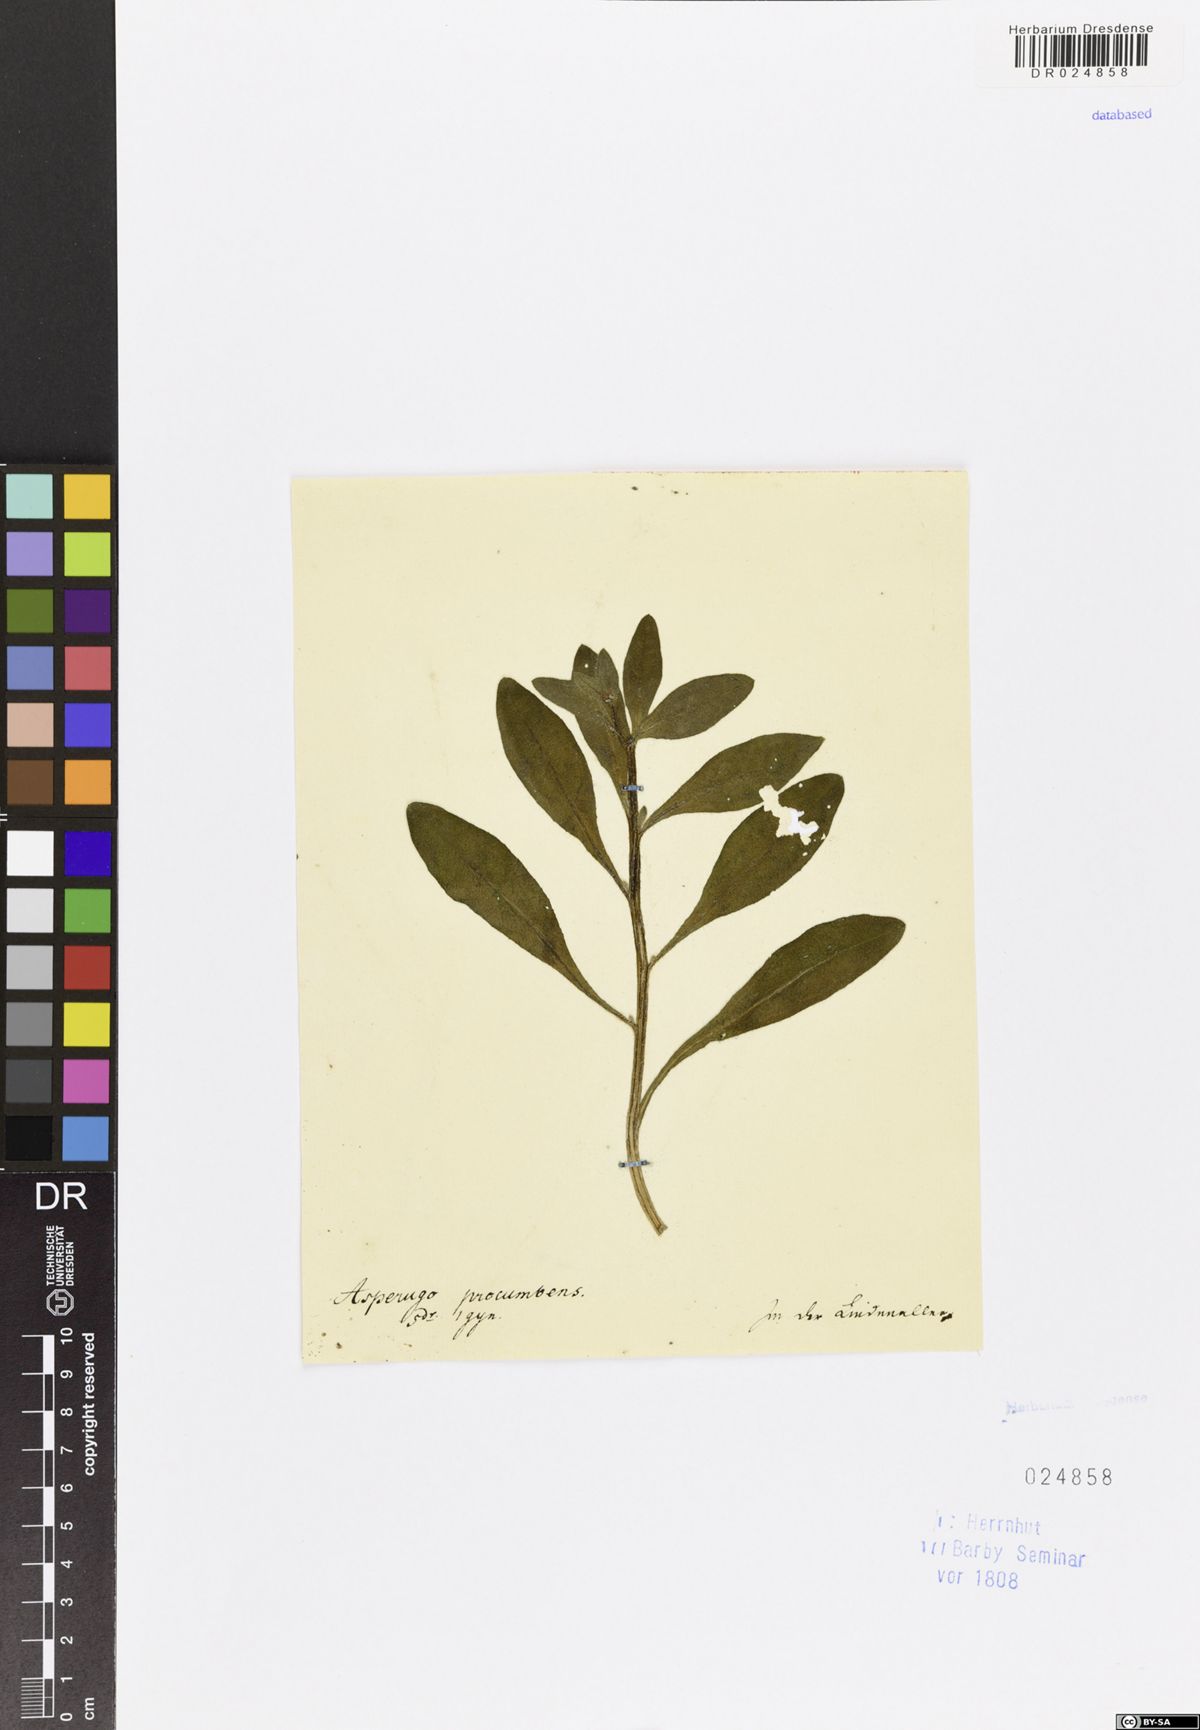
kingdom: Plantae
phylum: Tracheophyta
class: Magnoliopsida
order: Boraginales
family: Boraginaceae
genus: Asperugo
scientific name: Asperugo procumbens
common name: Madwort
